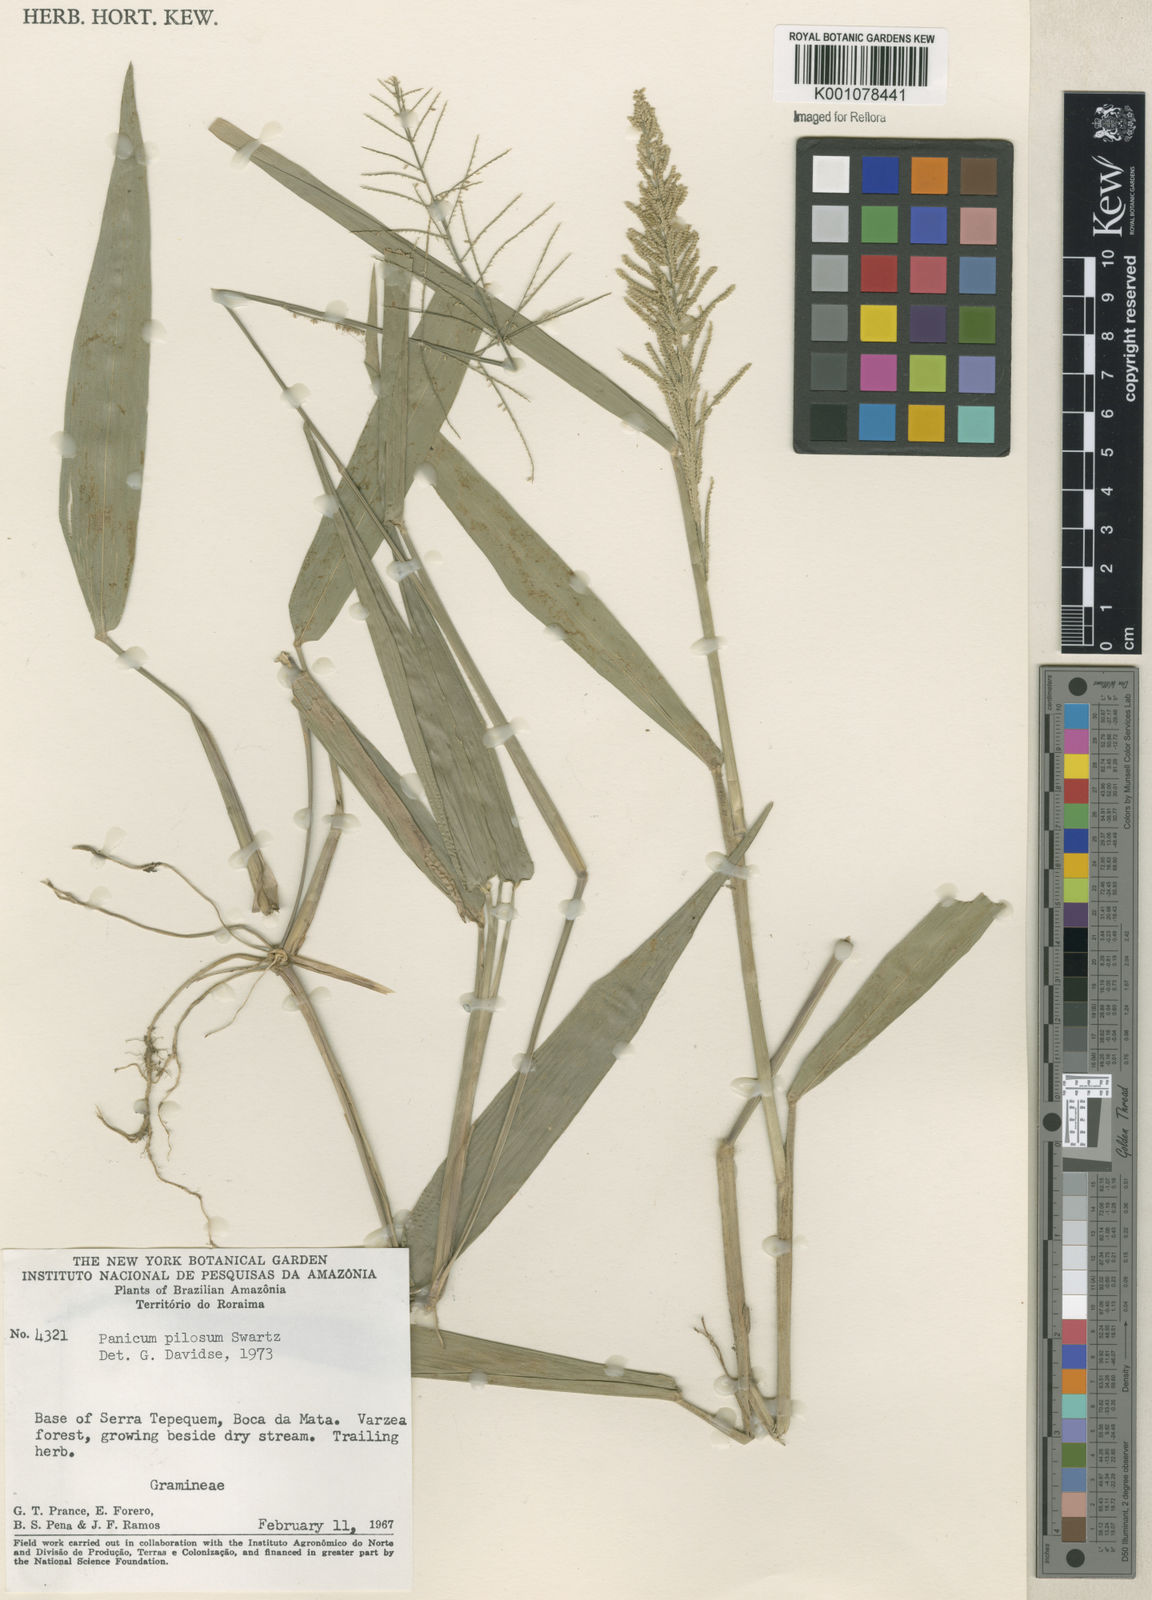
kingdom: Plantae
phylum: Tracheophyta
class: Liliopsida
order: Poales
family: Poaceae
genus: Rugoloa
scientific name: Rugoloa pilosa
